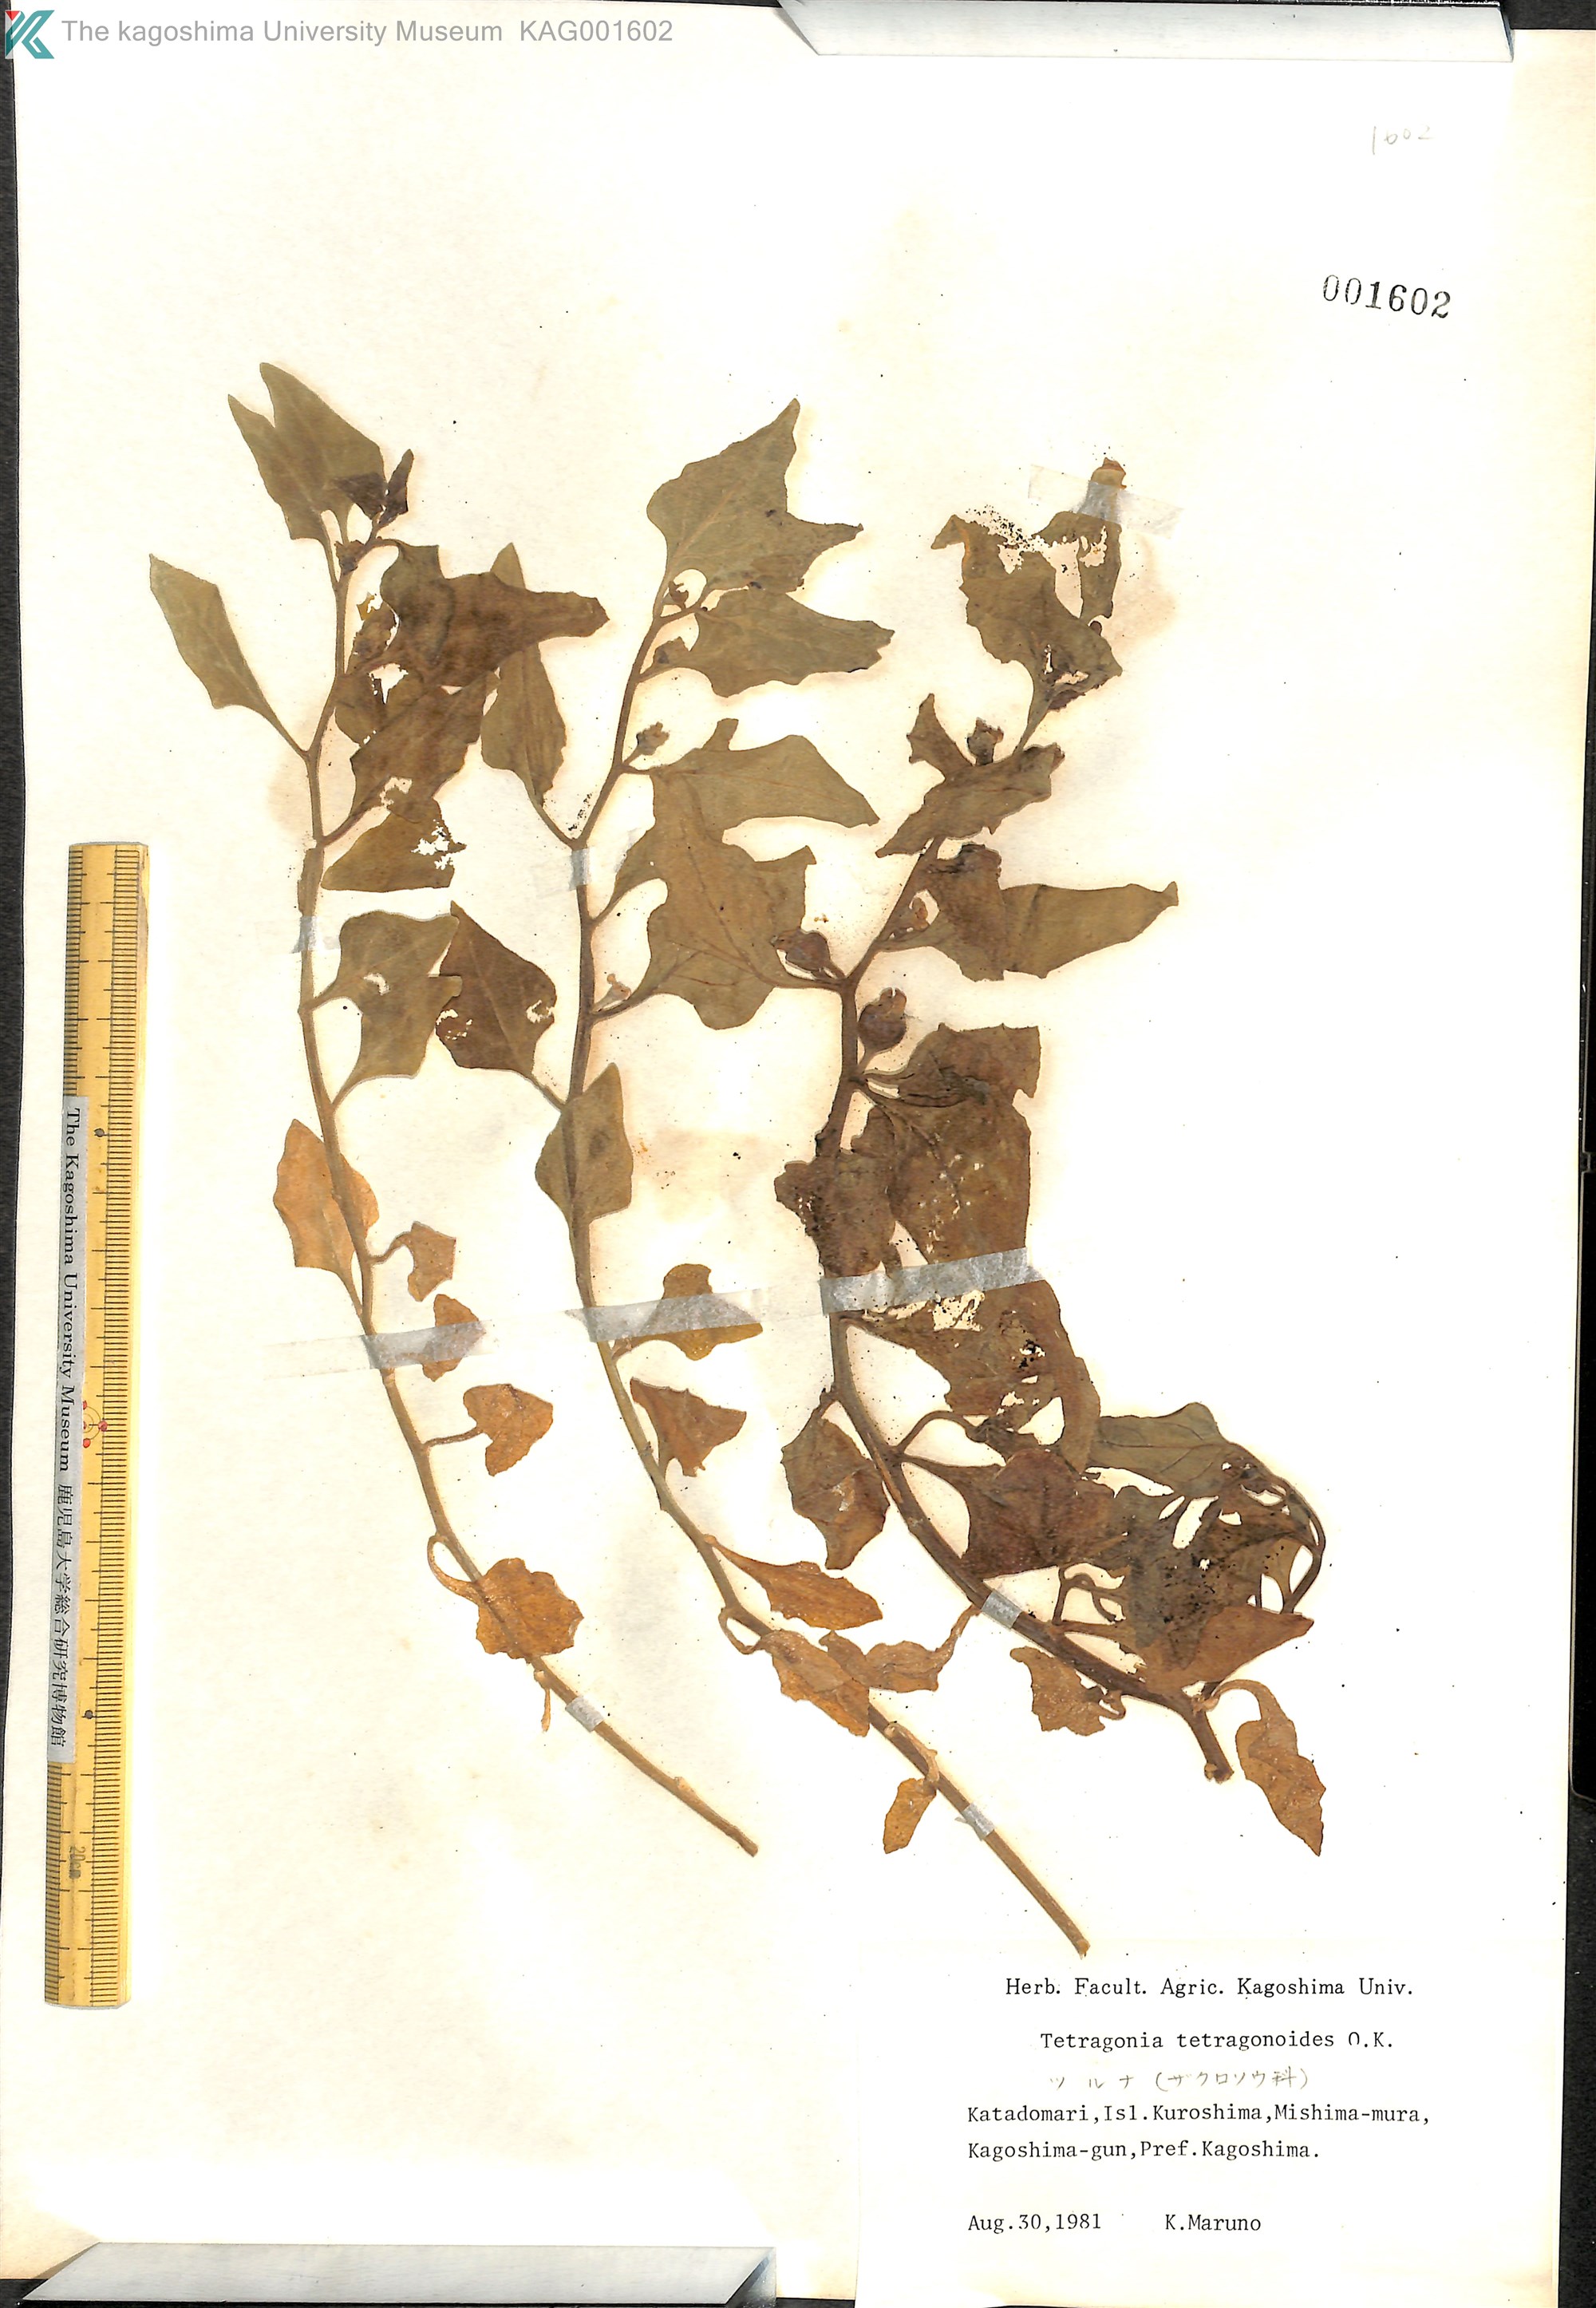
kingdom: Plantae
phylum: Tracheophyta
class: Magnoliopsida
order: Caryophyllales
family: Aizoaceae
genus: Tetragonia
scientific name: Tetragonia tetragonoides
